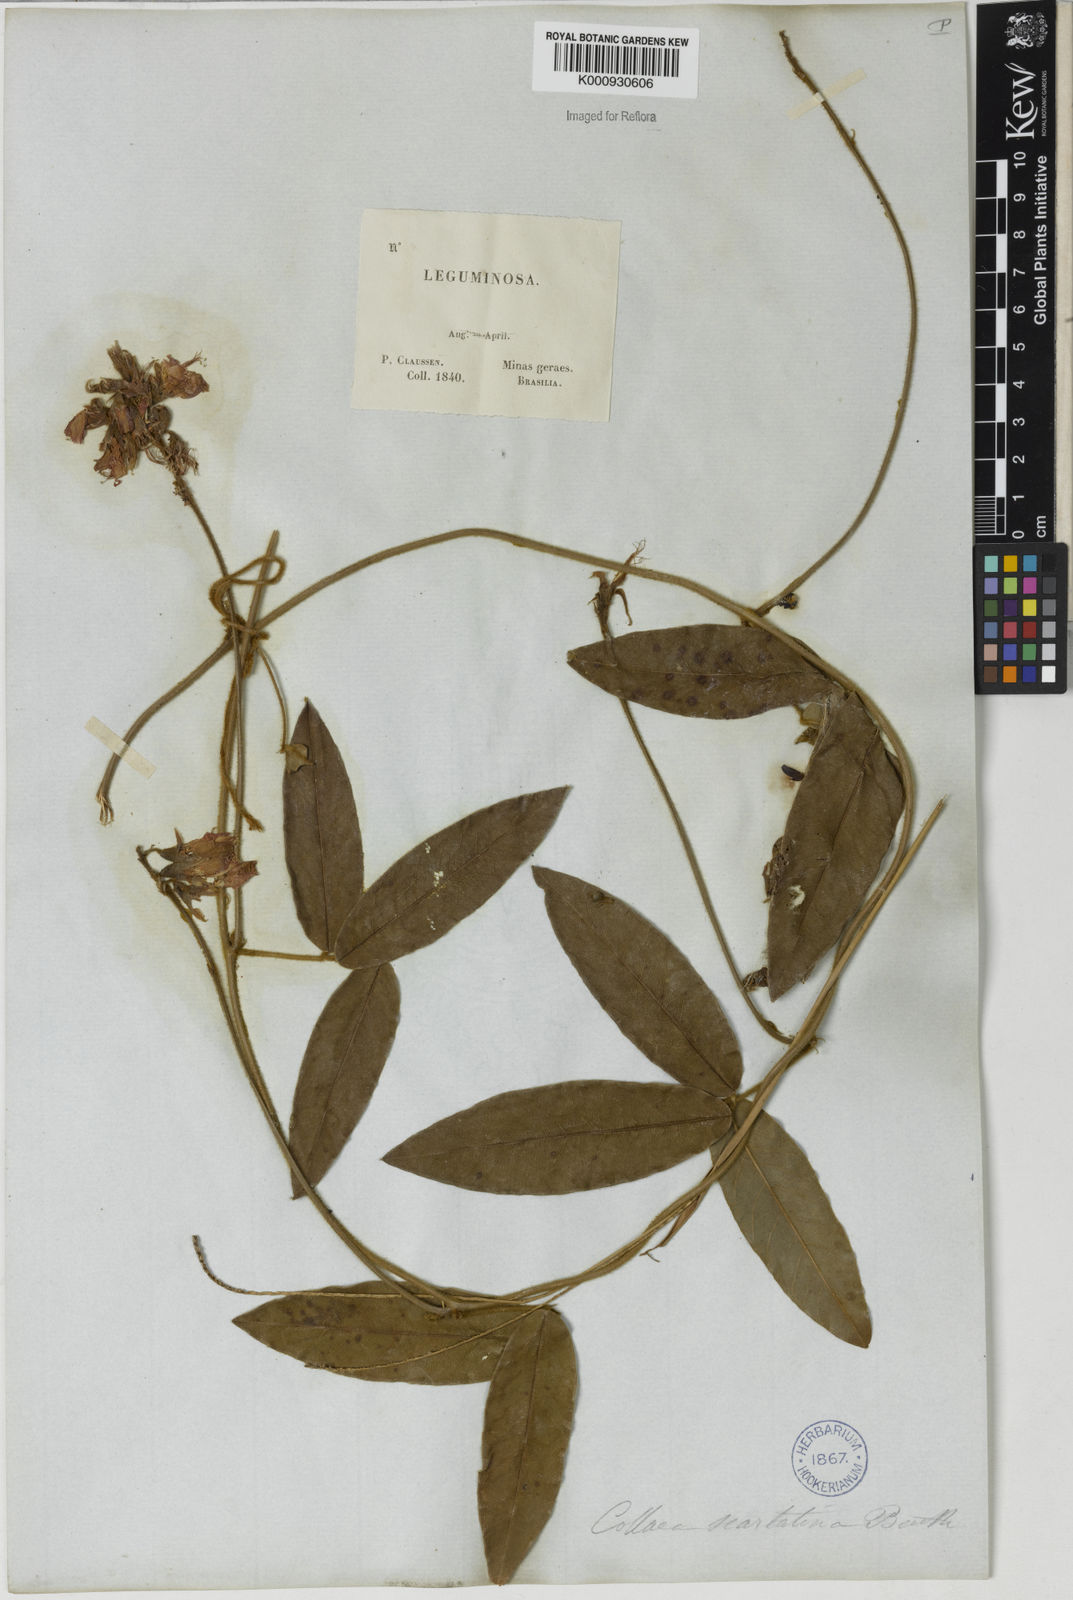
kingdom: Plantae
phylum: Tracheophyta
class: Magnoliopsida
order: Fabales
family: Fabaceae
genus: Betencourtia
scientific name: Betencourtia scarlatina
